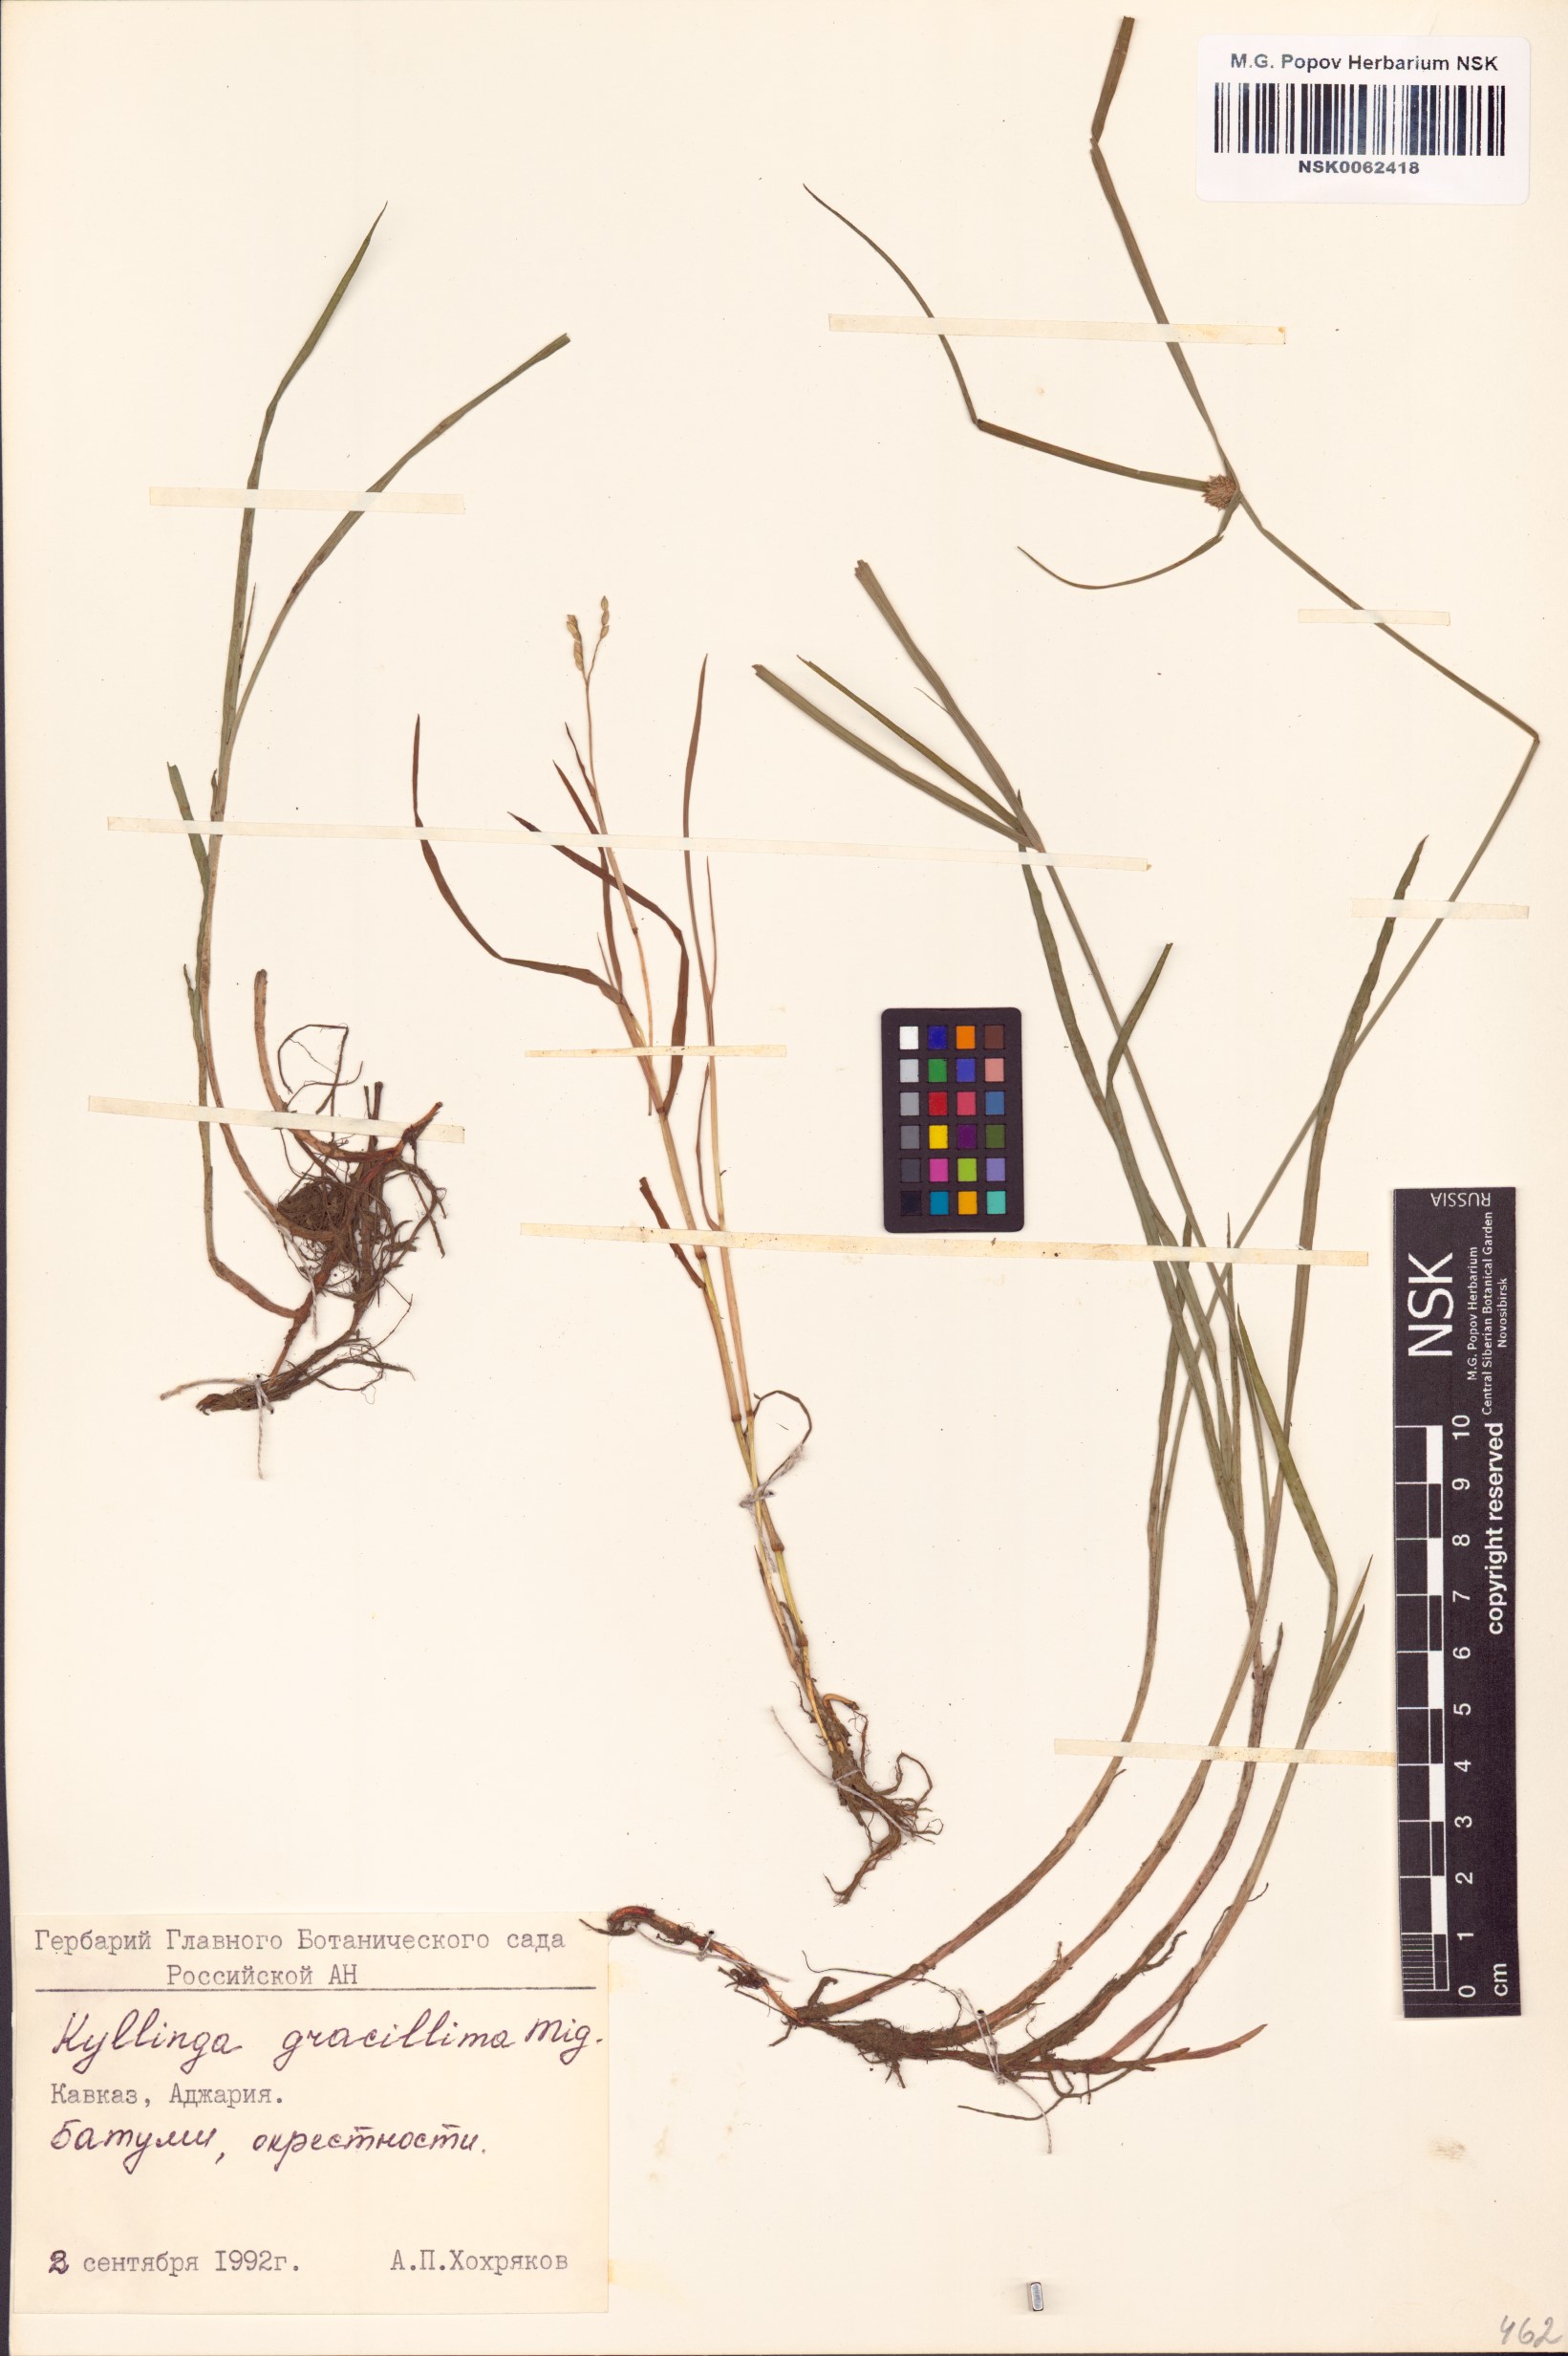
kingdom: Plantae
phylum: Tracheophyta
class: Liliopsida
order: Poales
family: Cyperaceae
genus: Cyperus
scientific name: Cyperus brevifolioides
